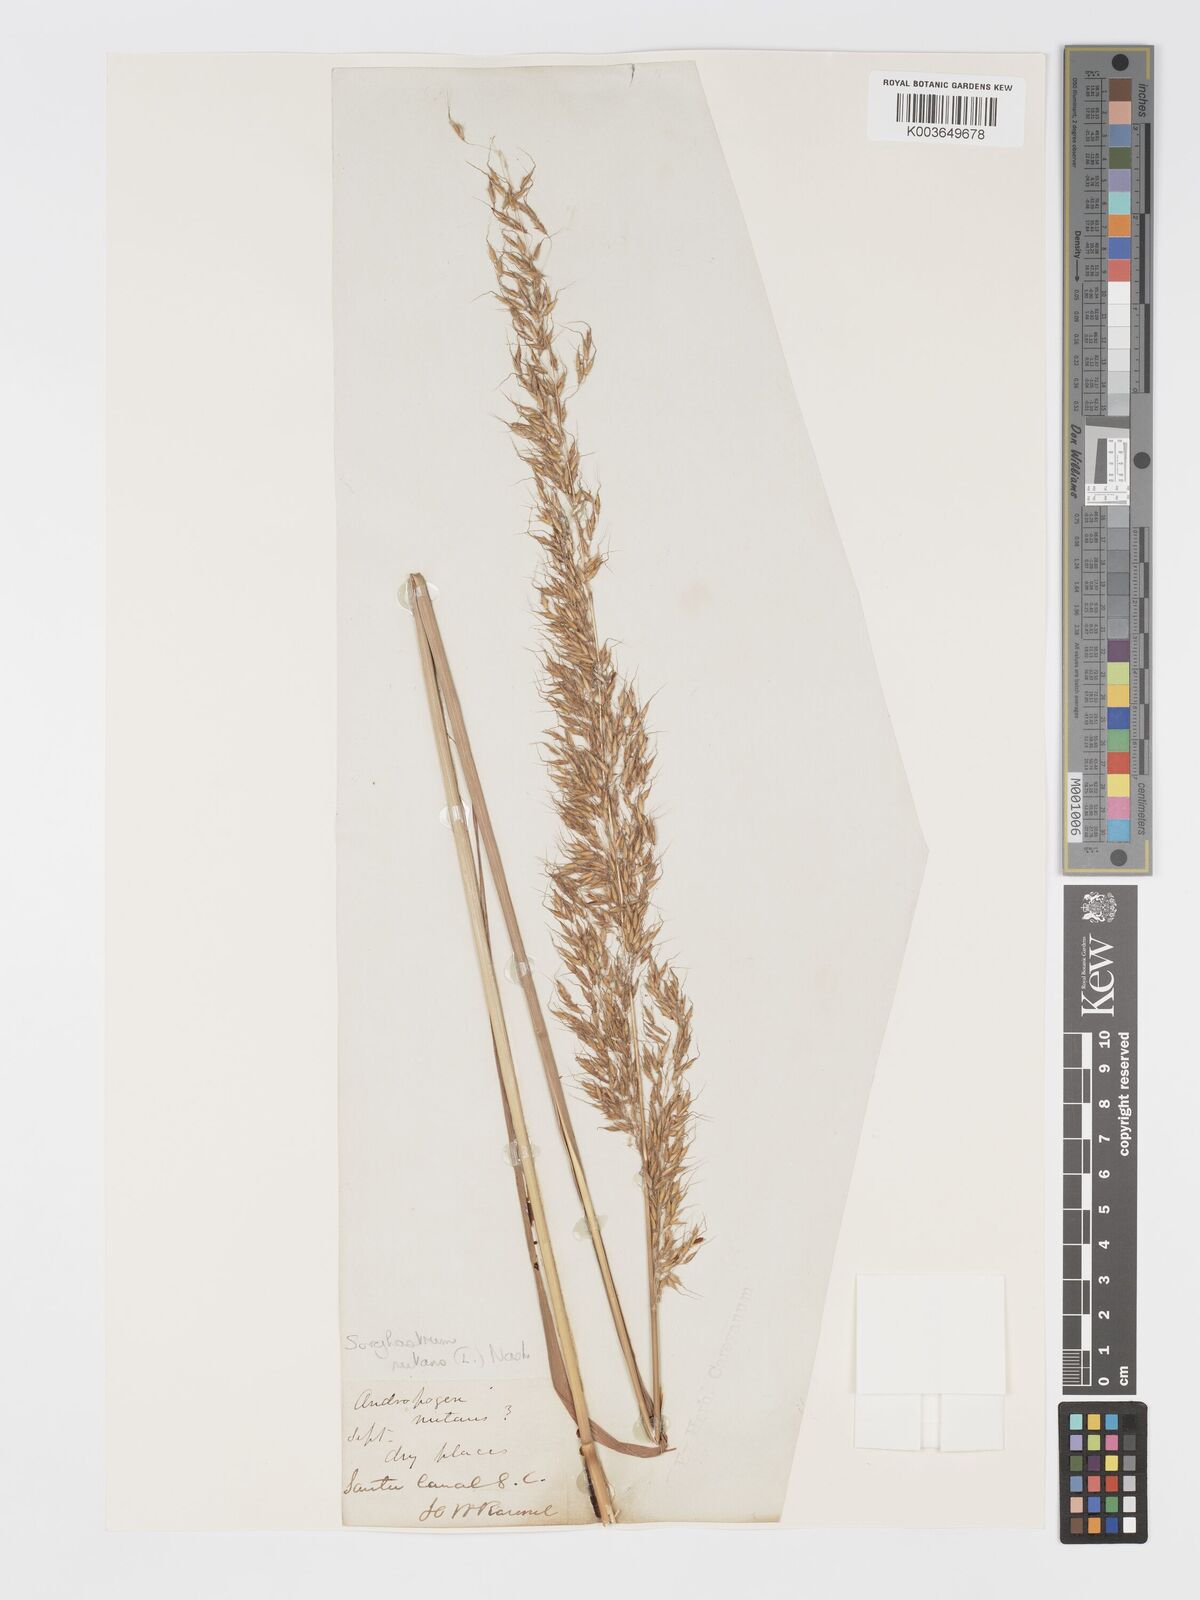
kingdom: Plantae
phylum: Tracheophyta
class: Liliopsida
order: Poales
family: Poaceae
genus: Sorghastrum
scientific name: Sorghastrum nutans
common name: Indian grass
